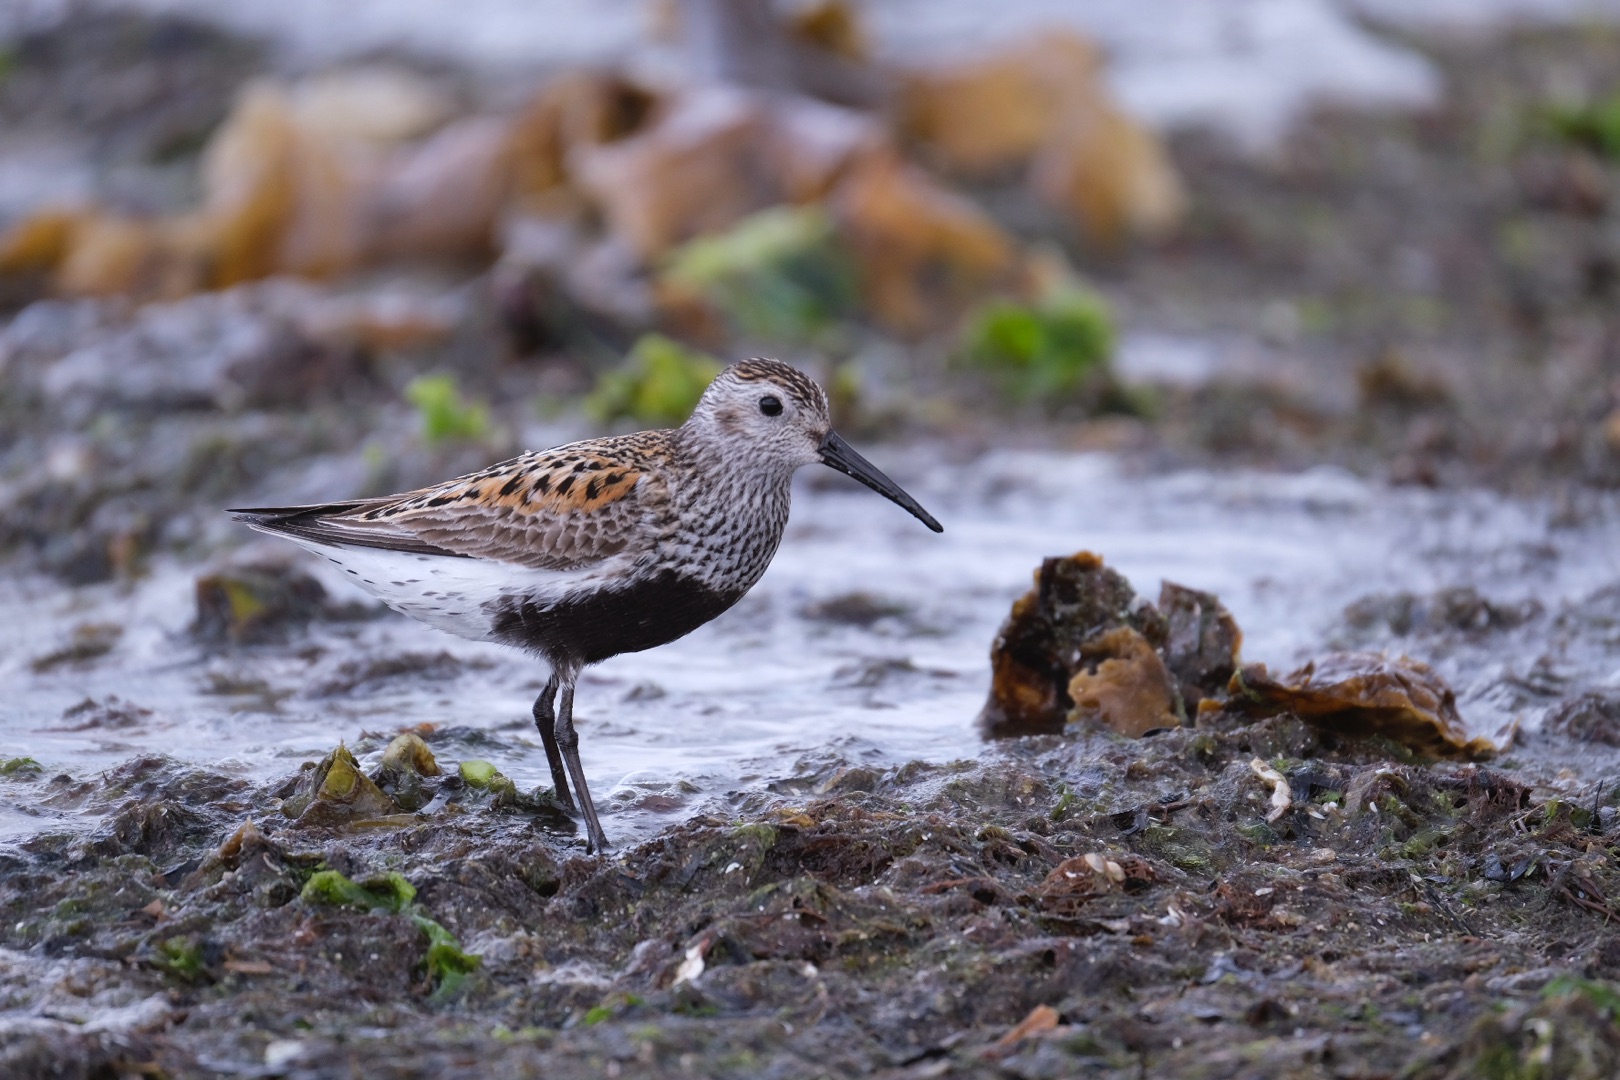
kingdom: Animalia
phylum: Chordata
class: Aves
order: Charadriiformes
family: Scolopacidae
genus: Calidris
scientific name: Calidris alpina
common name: Almindelig ryle
